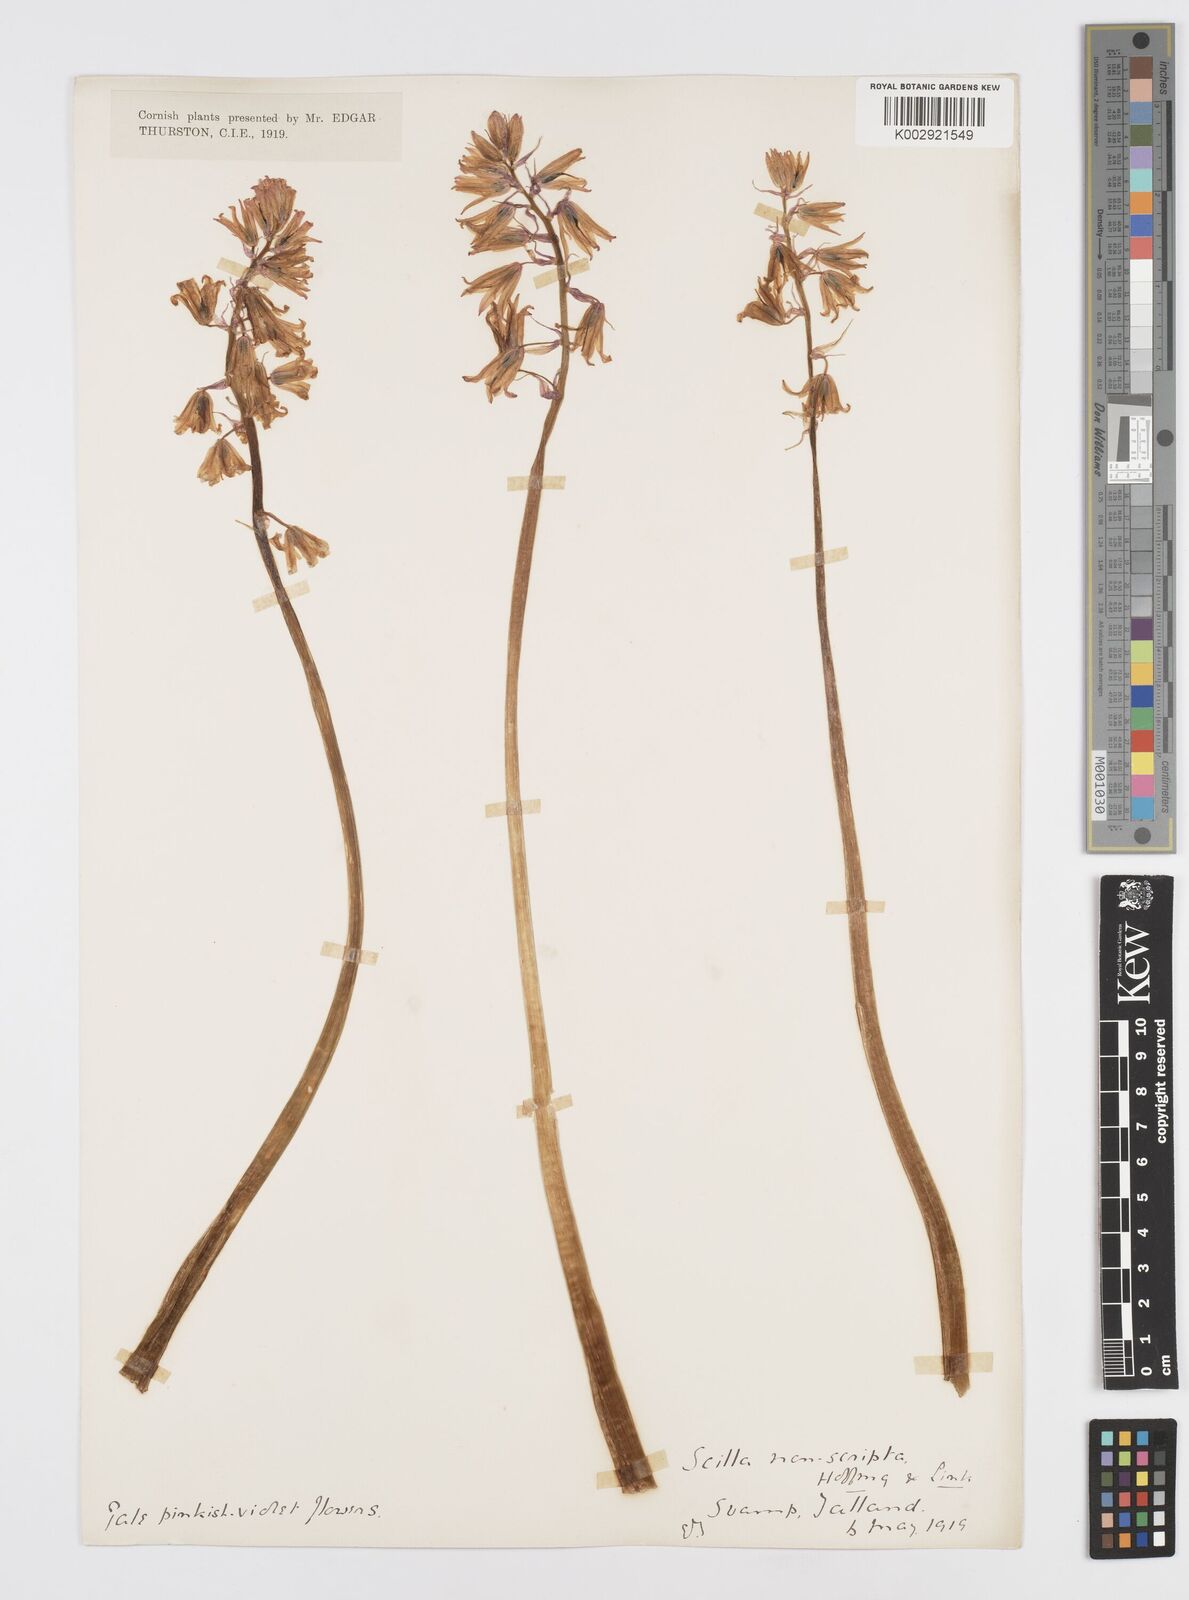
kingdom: Plantae
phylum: Tracheophyta
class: Liliopsida
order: Asparagales
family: Asparagaceae
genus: Hyacinthoides
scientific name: Hyacinthoides non-scripta
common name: Bluebell
